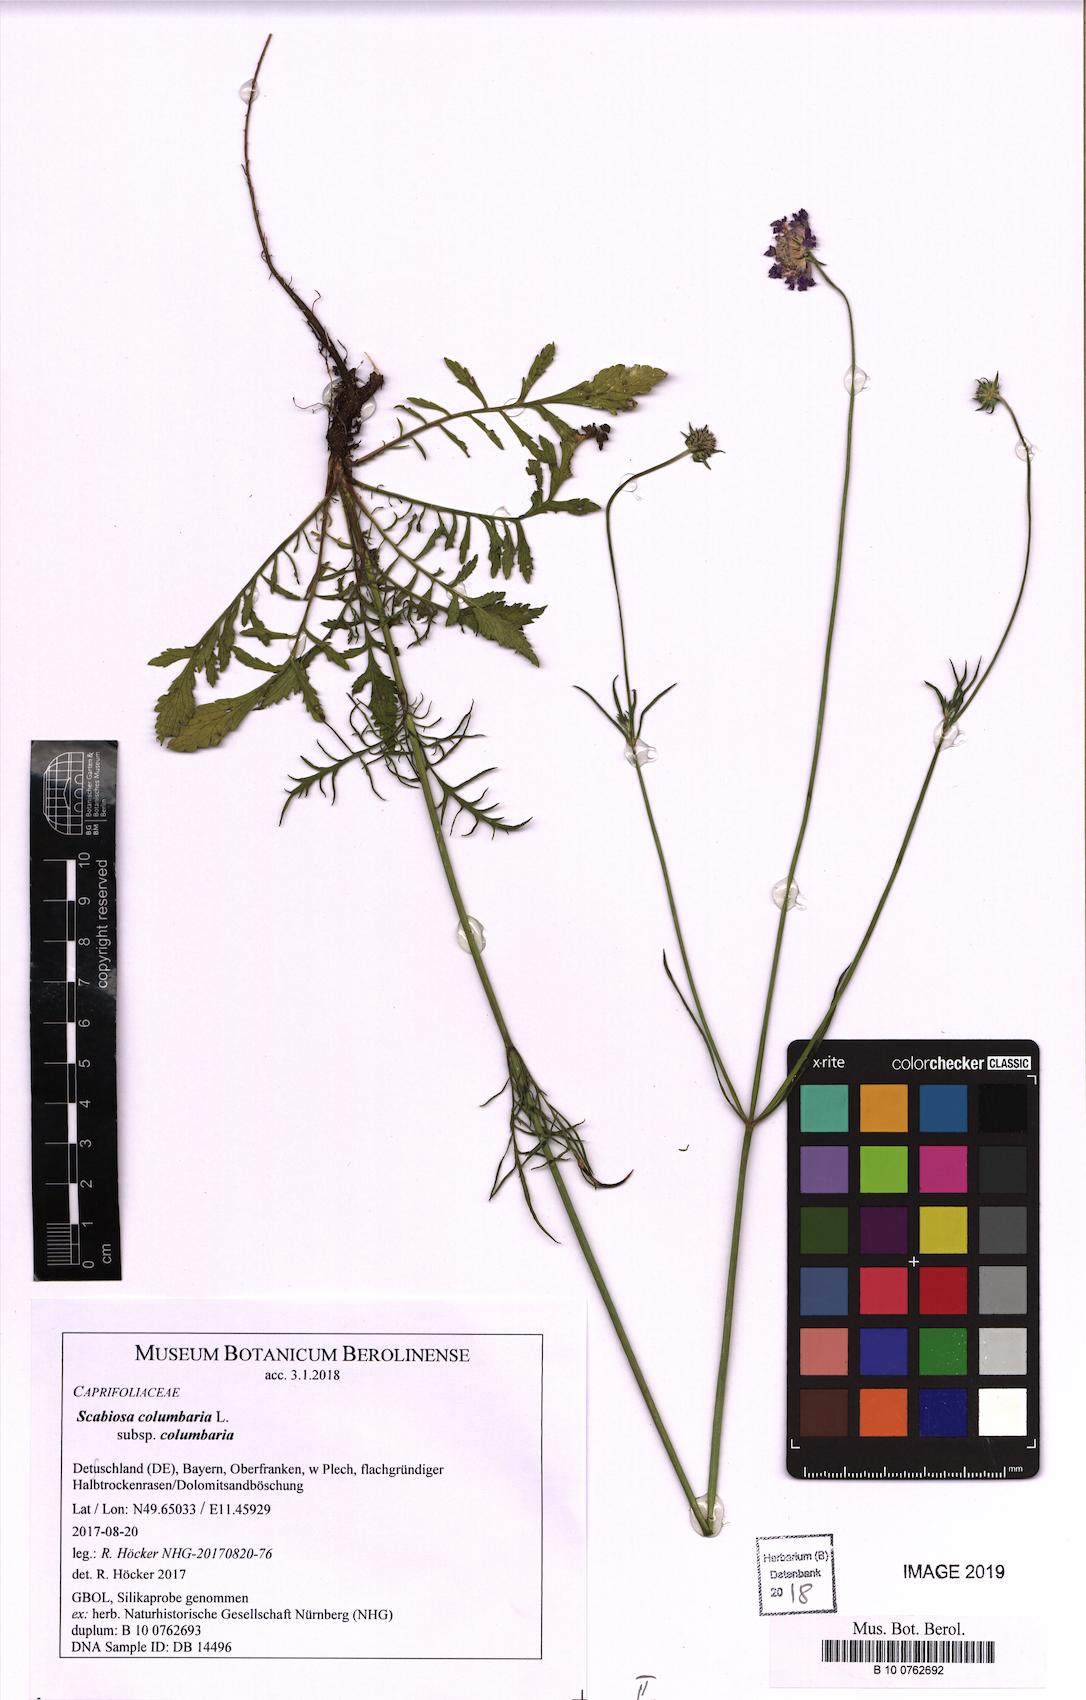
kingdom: Plantae
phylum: Tracheophyta
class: Magnoliopsida
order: Dipsacales
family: Caprifoliaceae
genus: Scabiosa
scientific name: Scabiosa columbaria
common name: Small scabious
